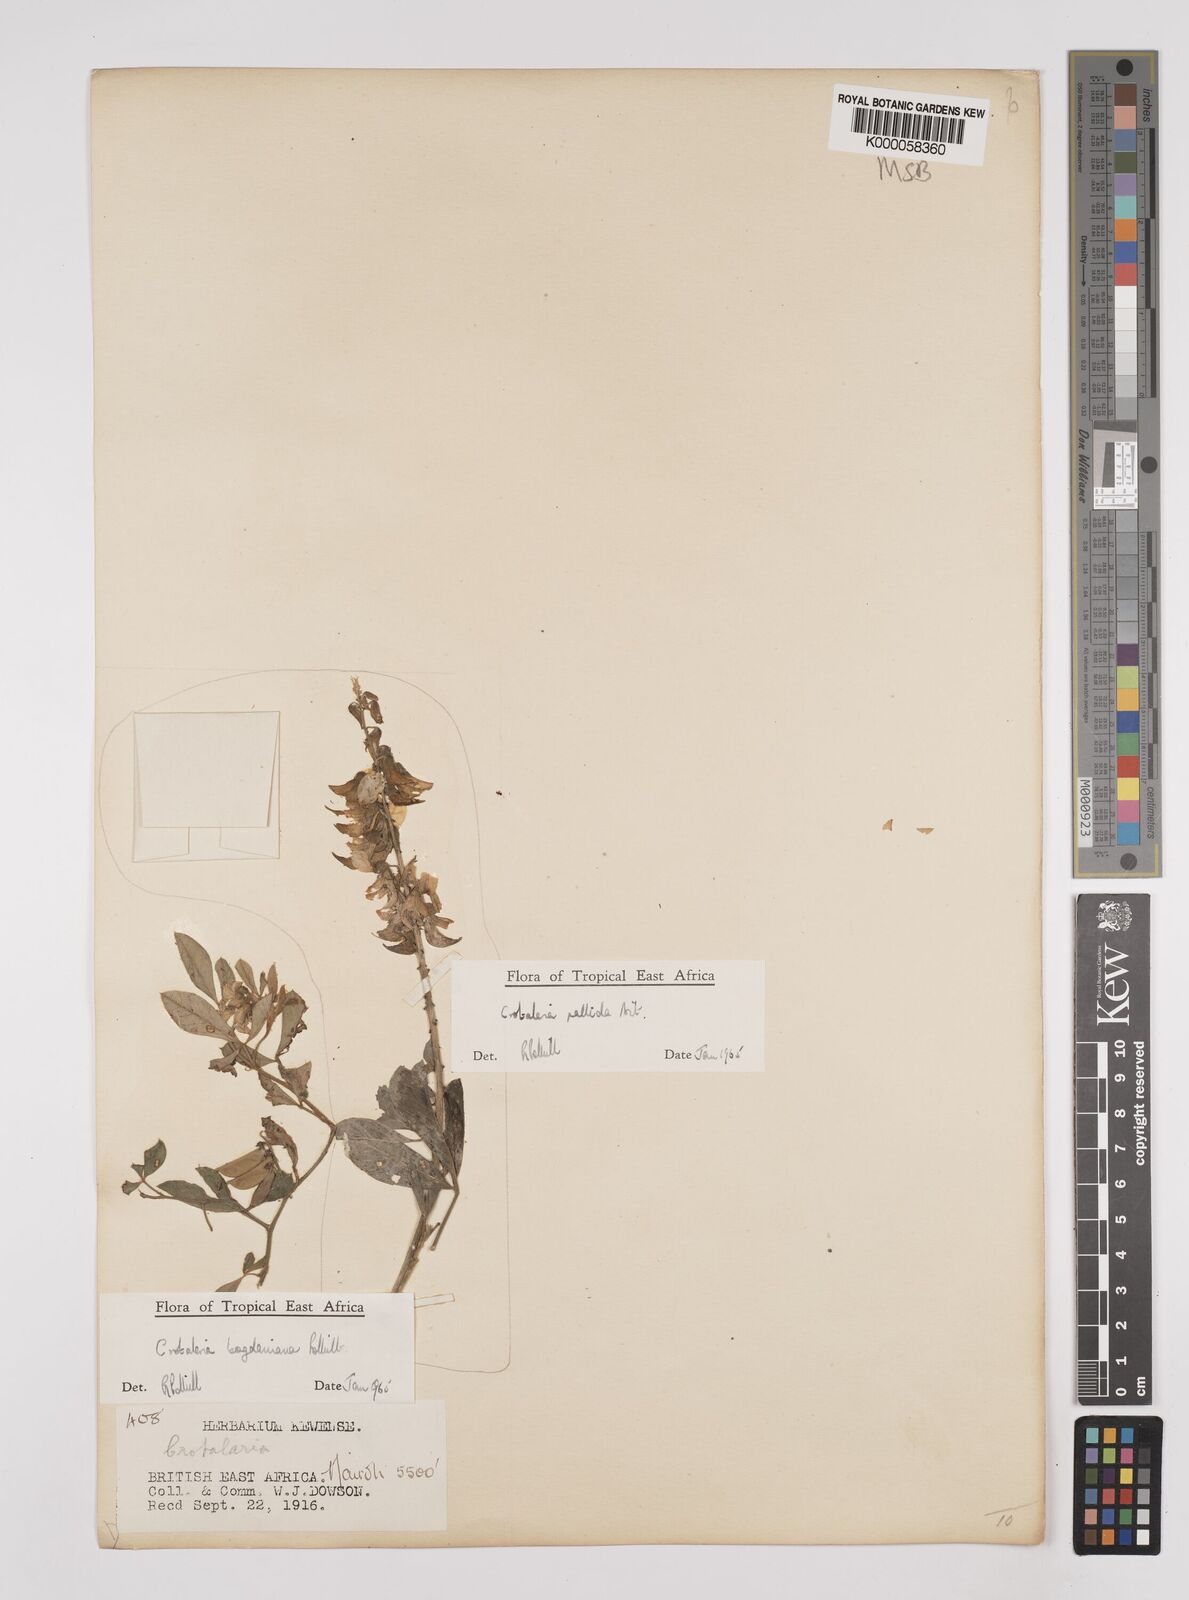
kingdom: Plantae
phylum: Tracheophyta
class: Magnoliopsida
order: Fabales
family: Fabaceae
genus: Crotalaria
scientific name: Crotalaria bogdaniana
